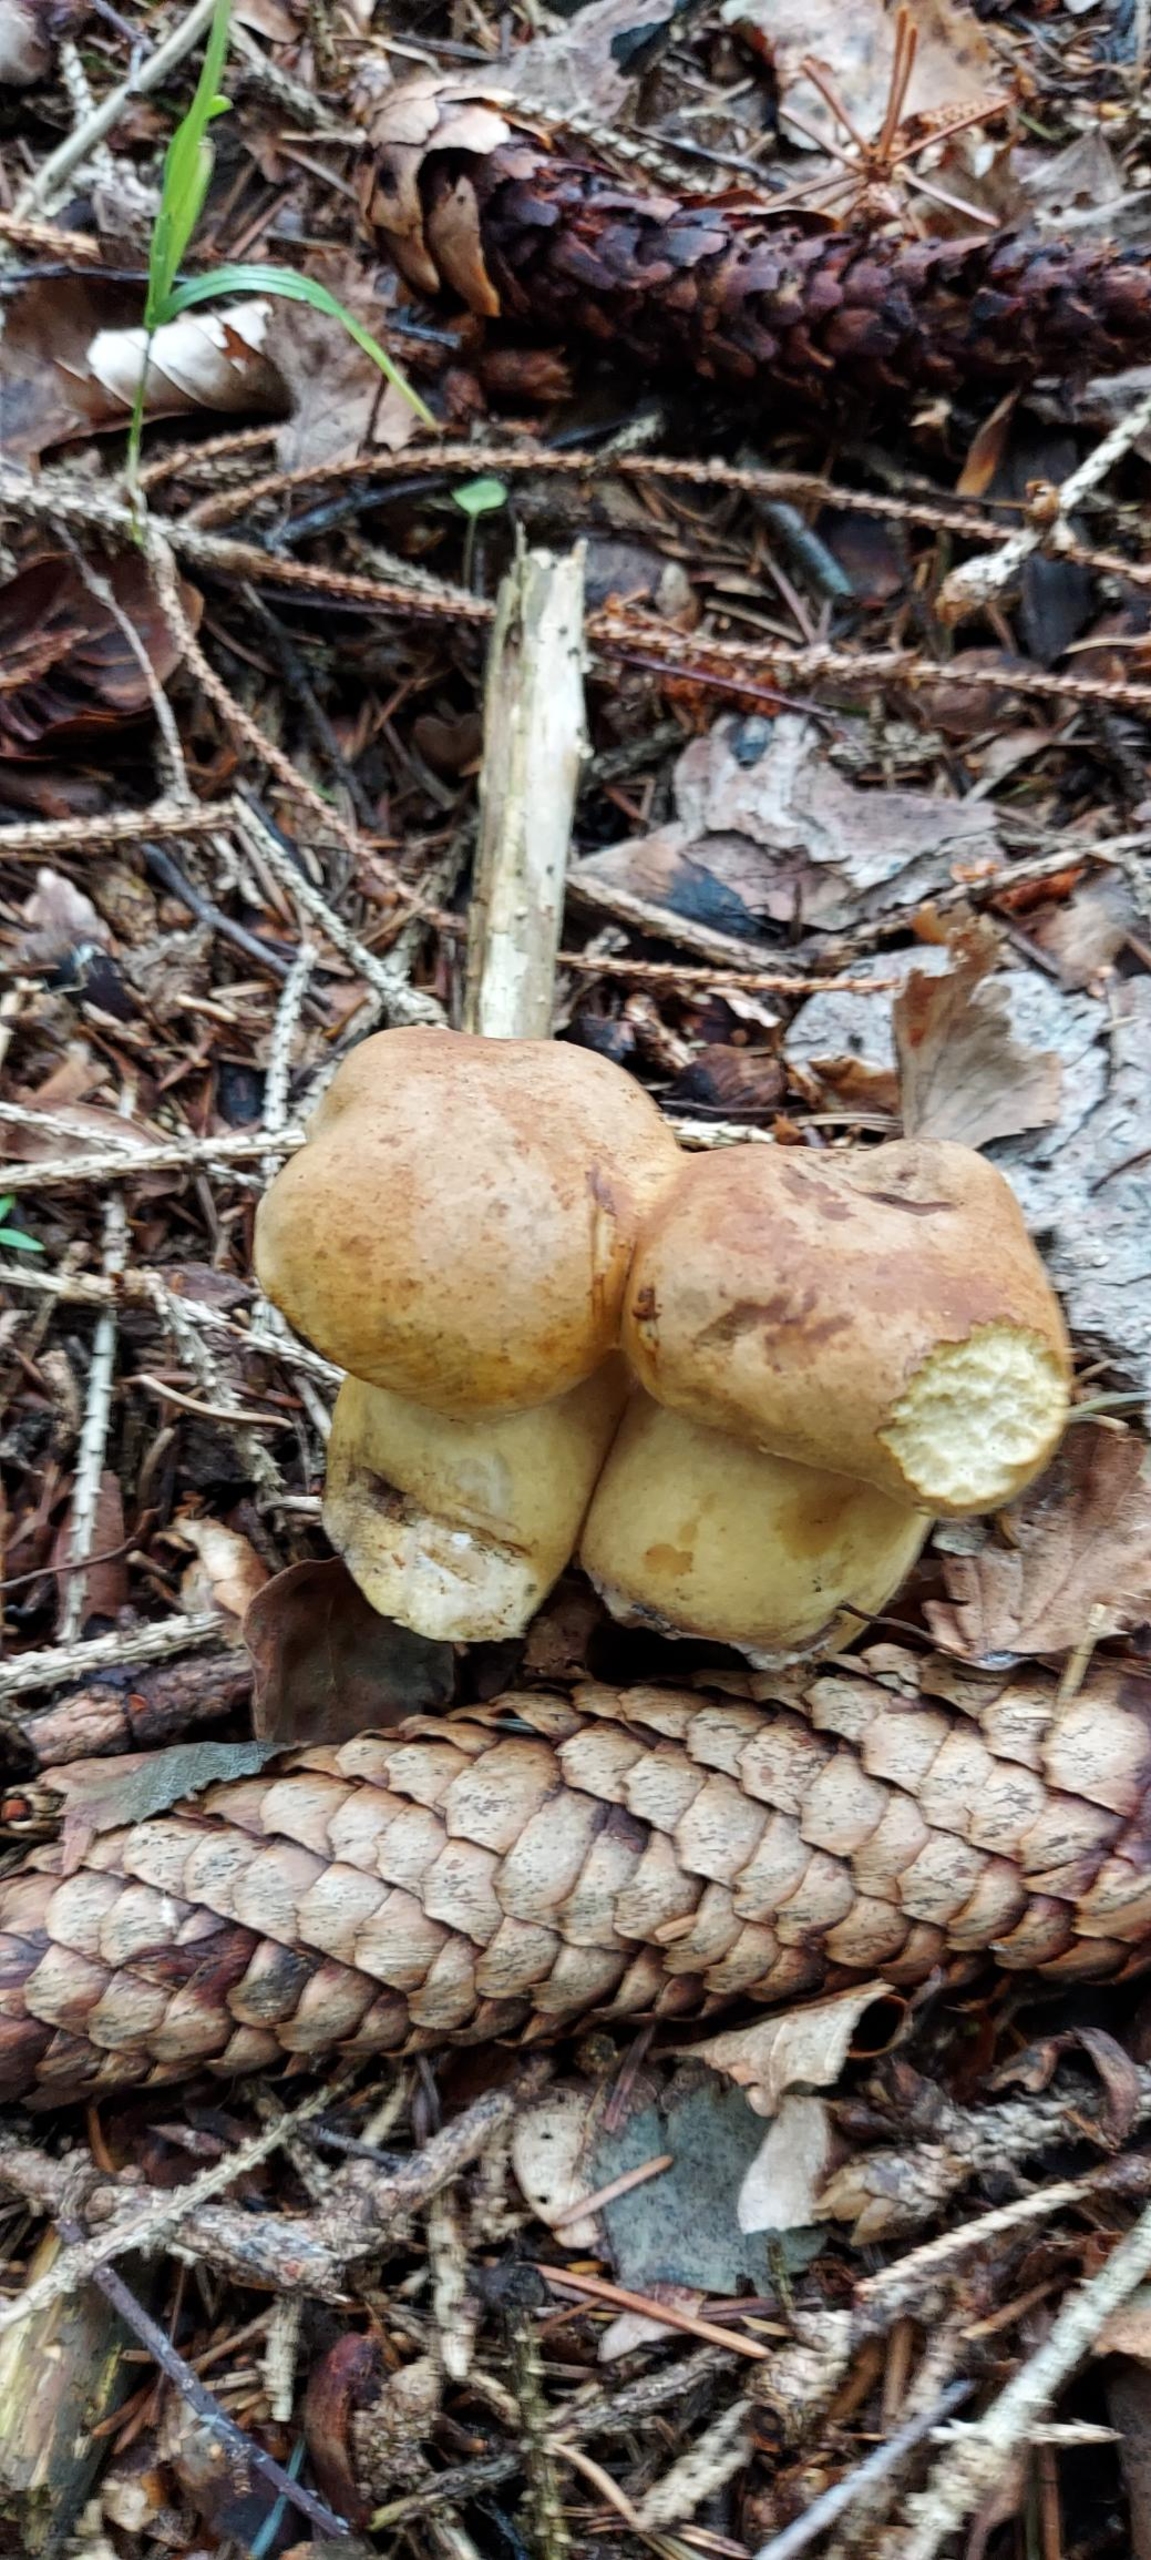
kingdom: Fungi
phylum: Basidiomycota
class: Agaricomycetes
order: Boletales
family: Boletaceae
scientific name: Boletaceae
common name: Rørhatfamilien
